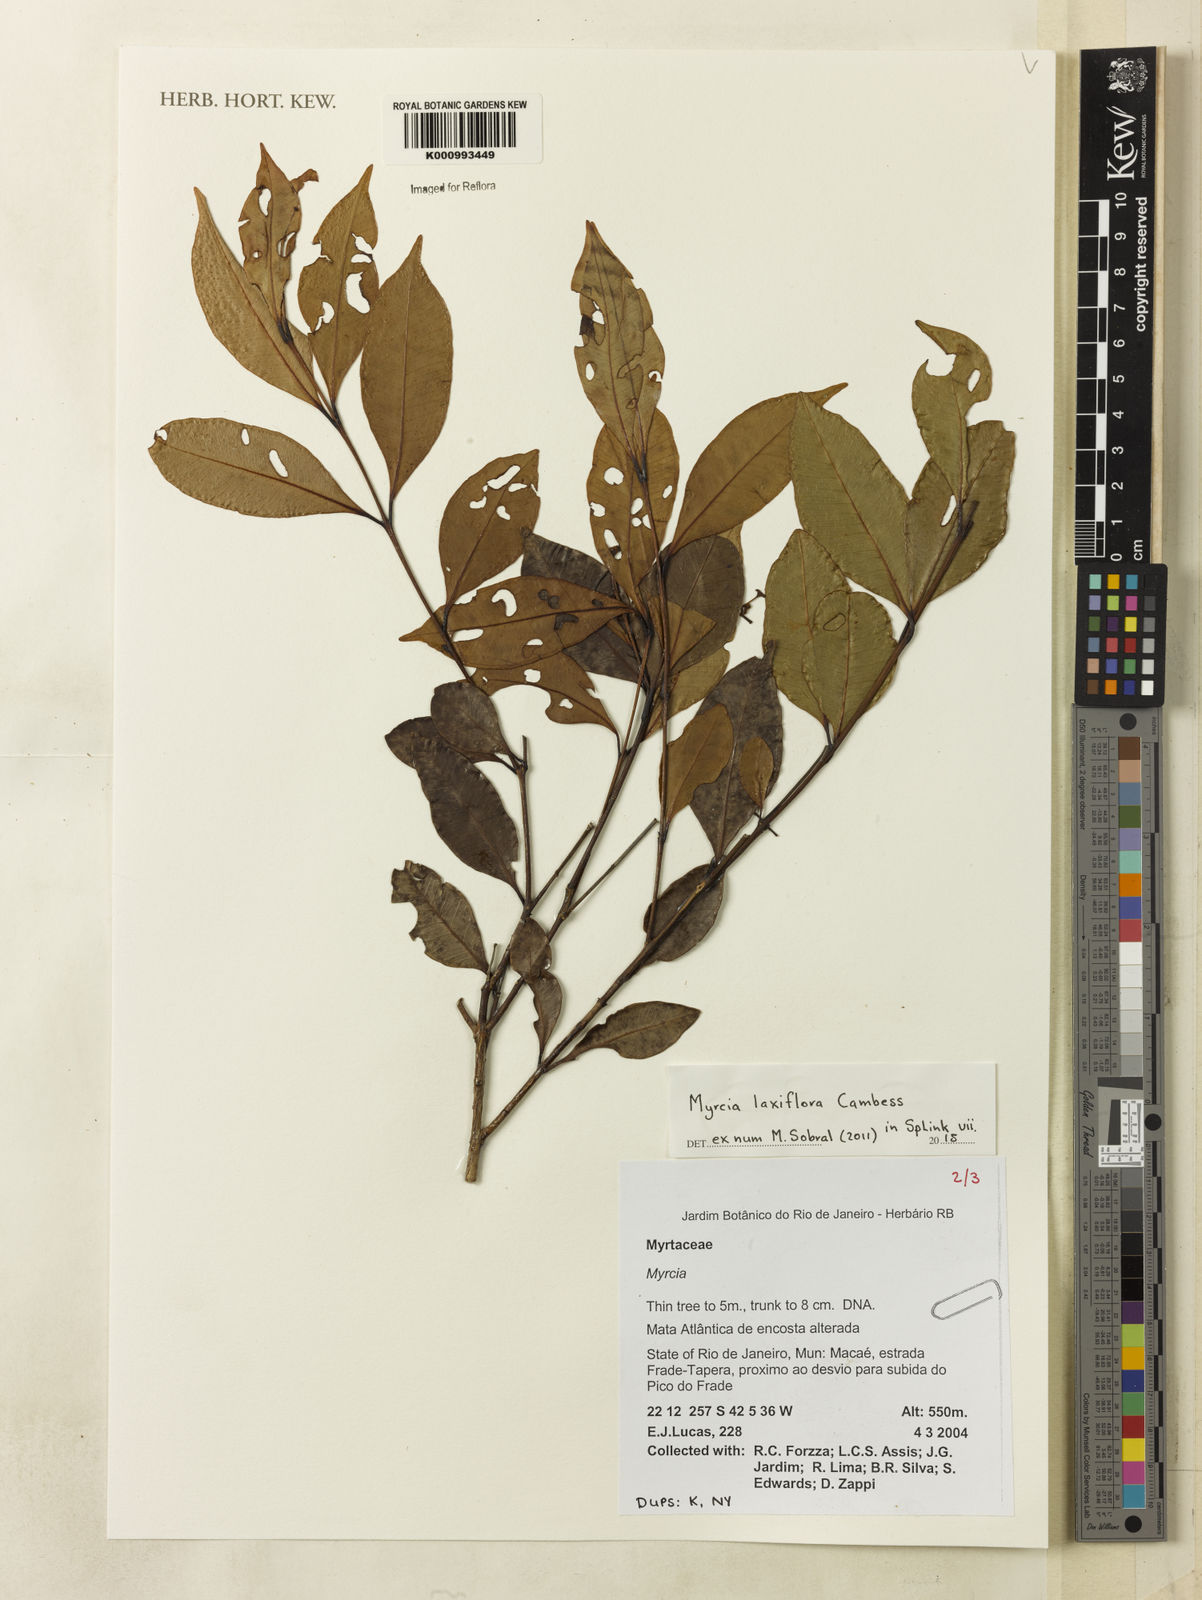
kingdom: Plantae
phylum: Tracheophyta
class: Magnoliopsida
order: Myrtales
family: Myrtaceae
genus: Myrcia
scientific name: Myrcia
